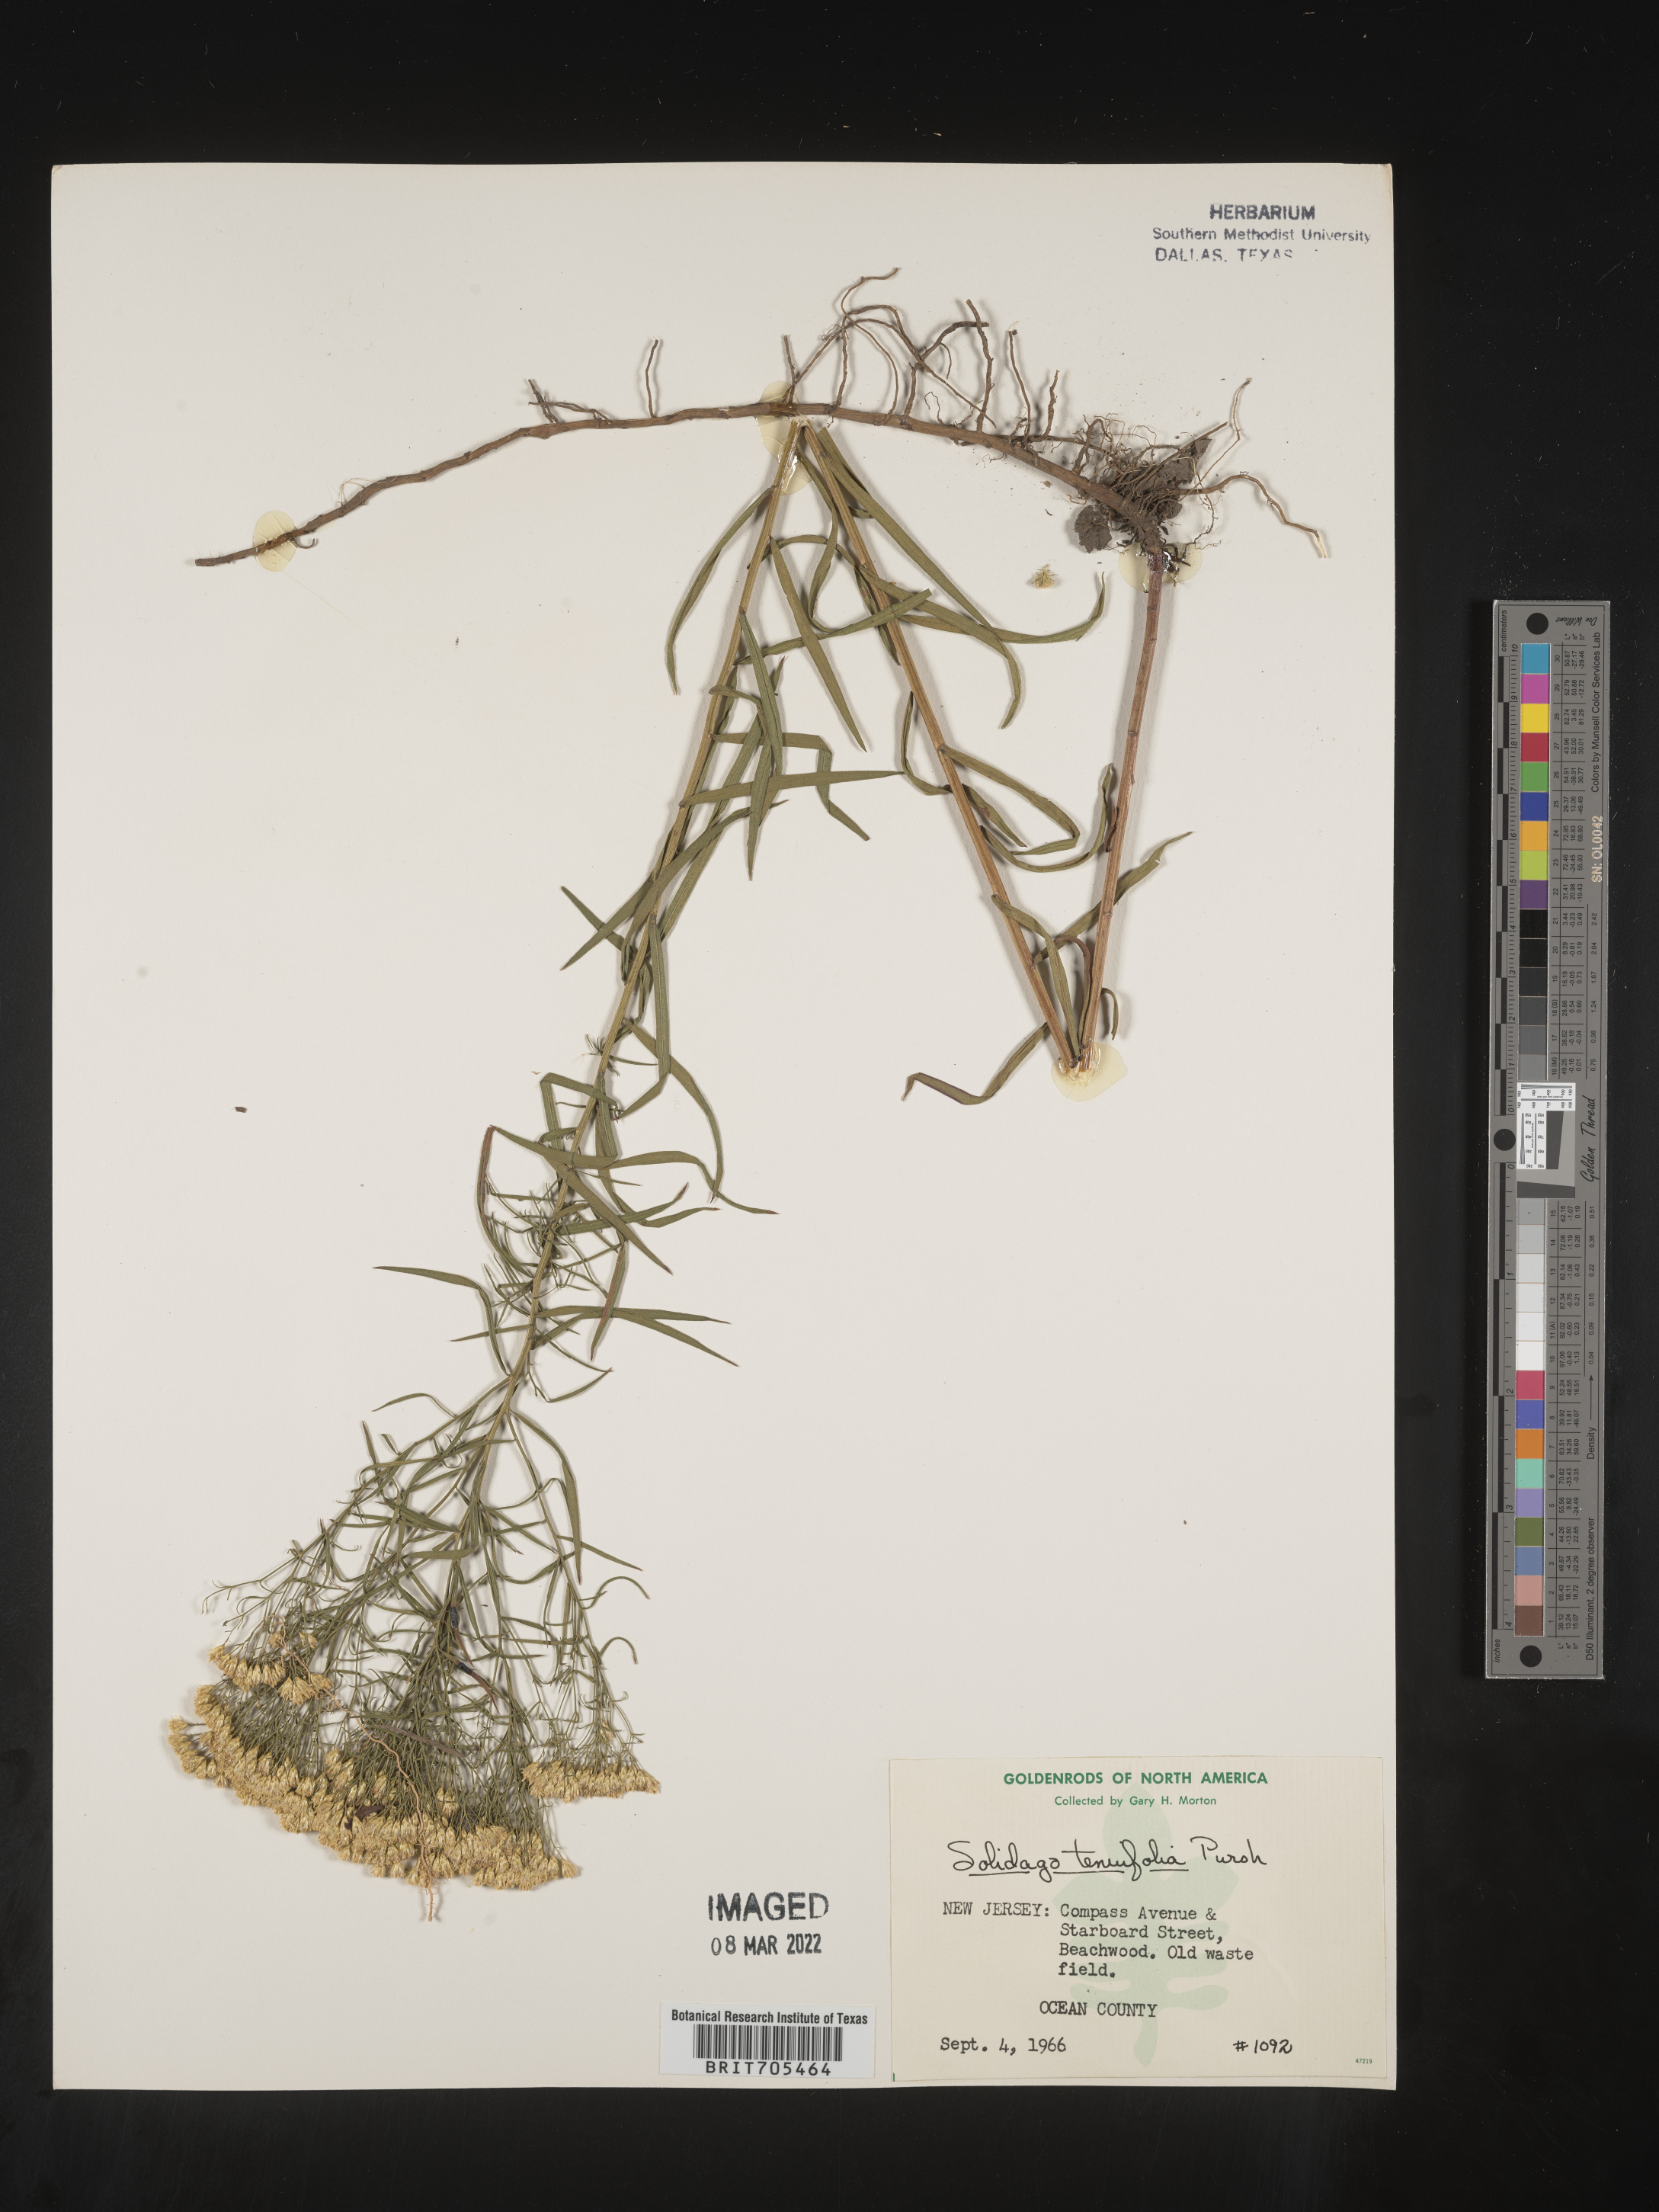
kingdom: Plantae
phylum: Tracheophyta
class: Magnoliopsida
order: Asterales
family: Asteraceae
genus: Euthamia
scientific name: Euthamia caroliniana
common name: Coastal plain goldentop
